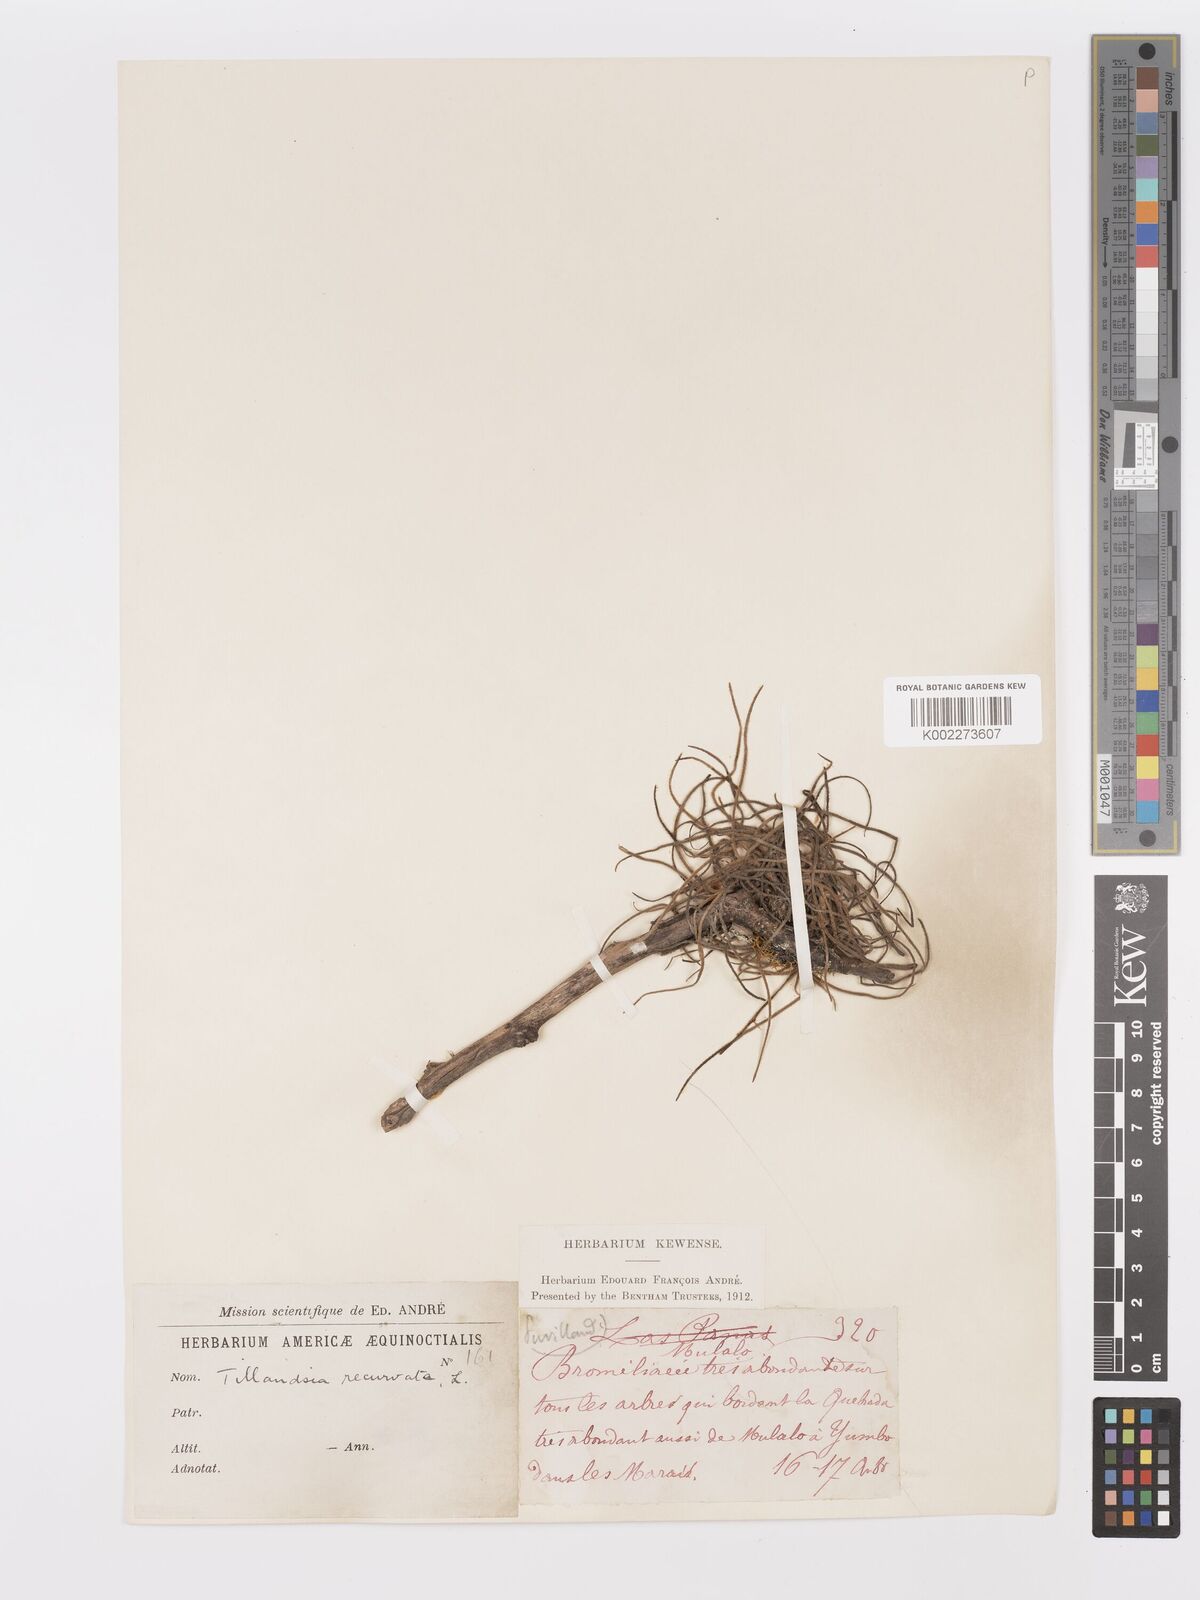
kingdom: Plantae
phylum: Tracheophyta
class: Liliopsida
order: Poales
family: Bromeliaceae
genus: Tillandsia
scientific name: Tillandsia recurvata
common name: Small ballmoss
